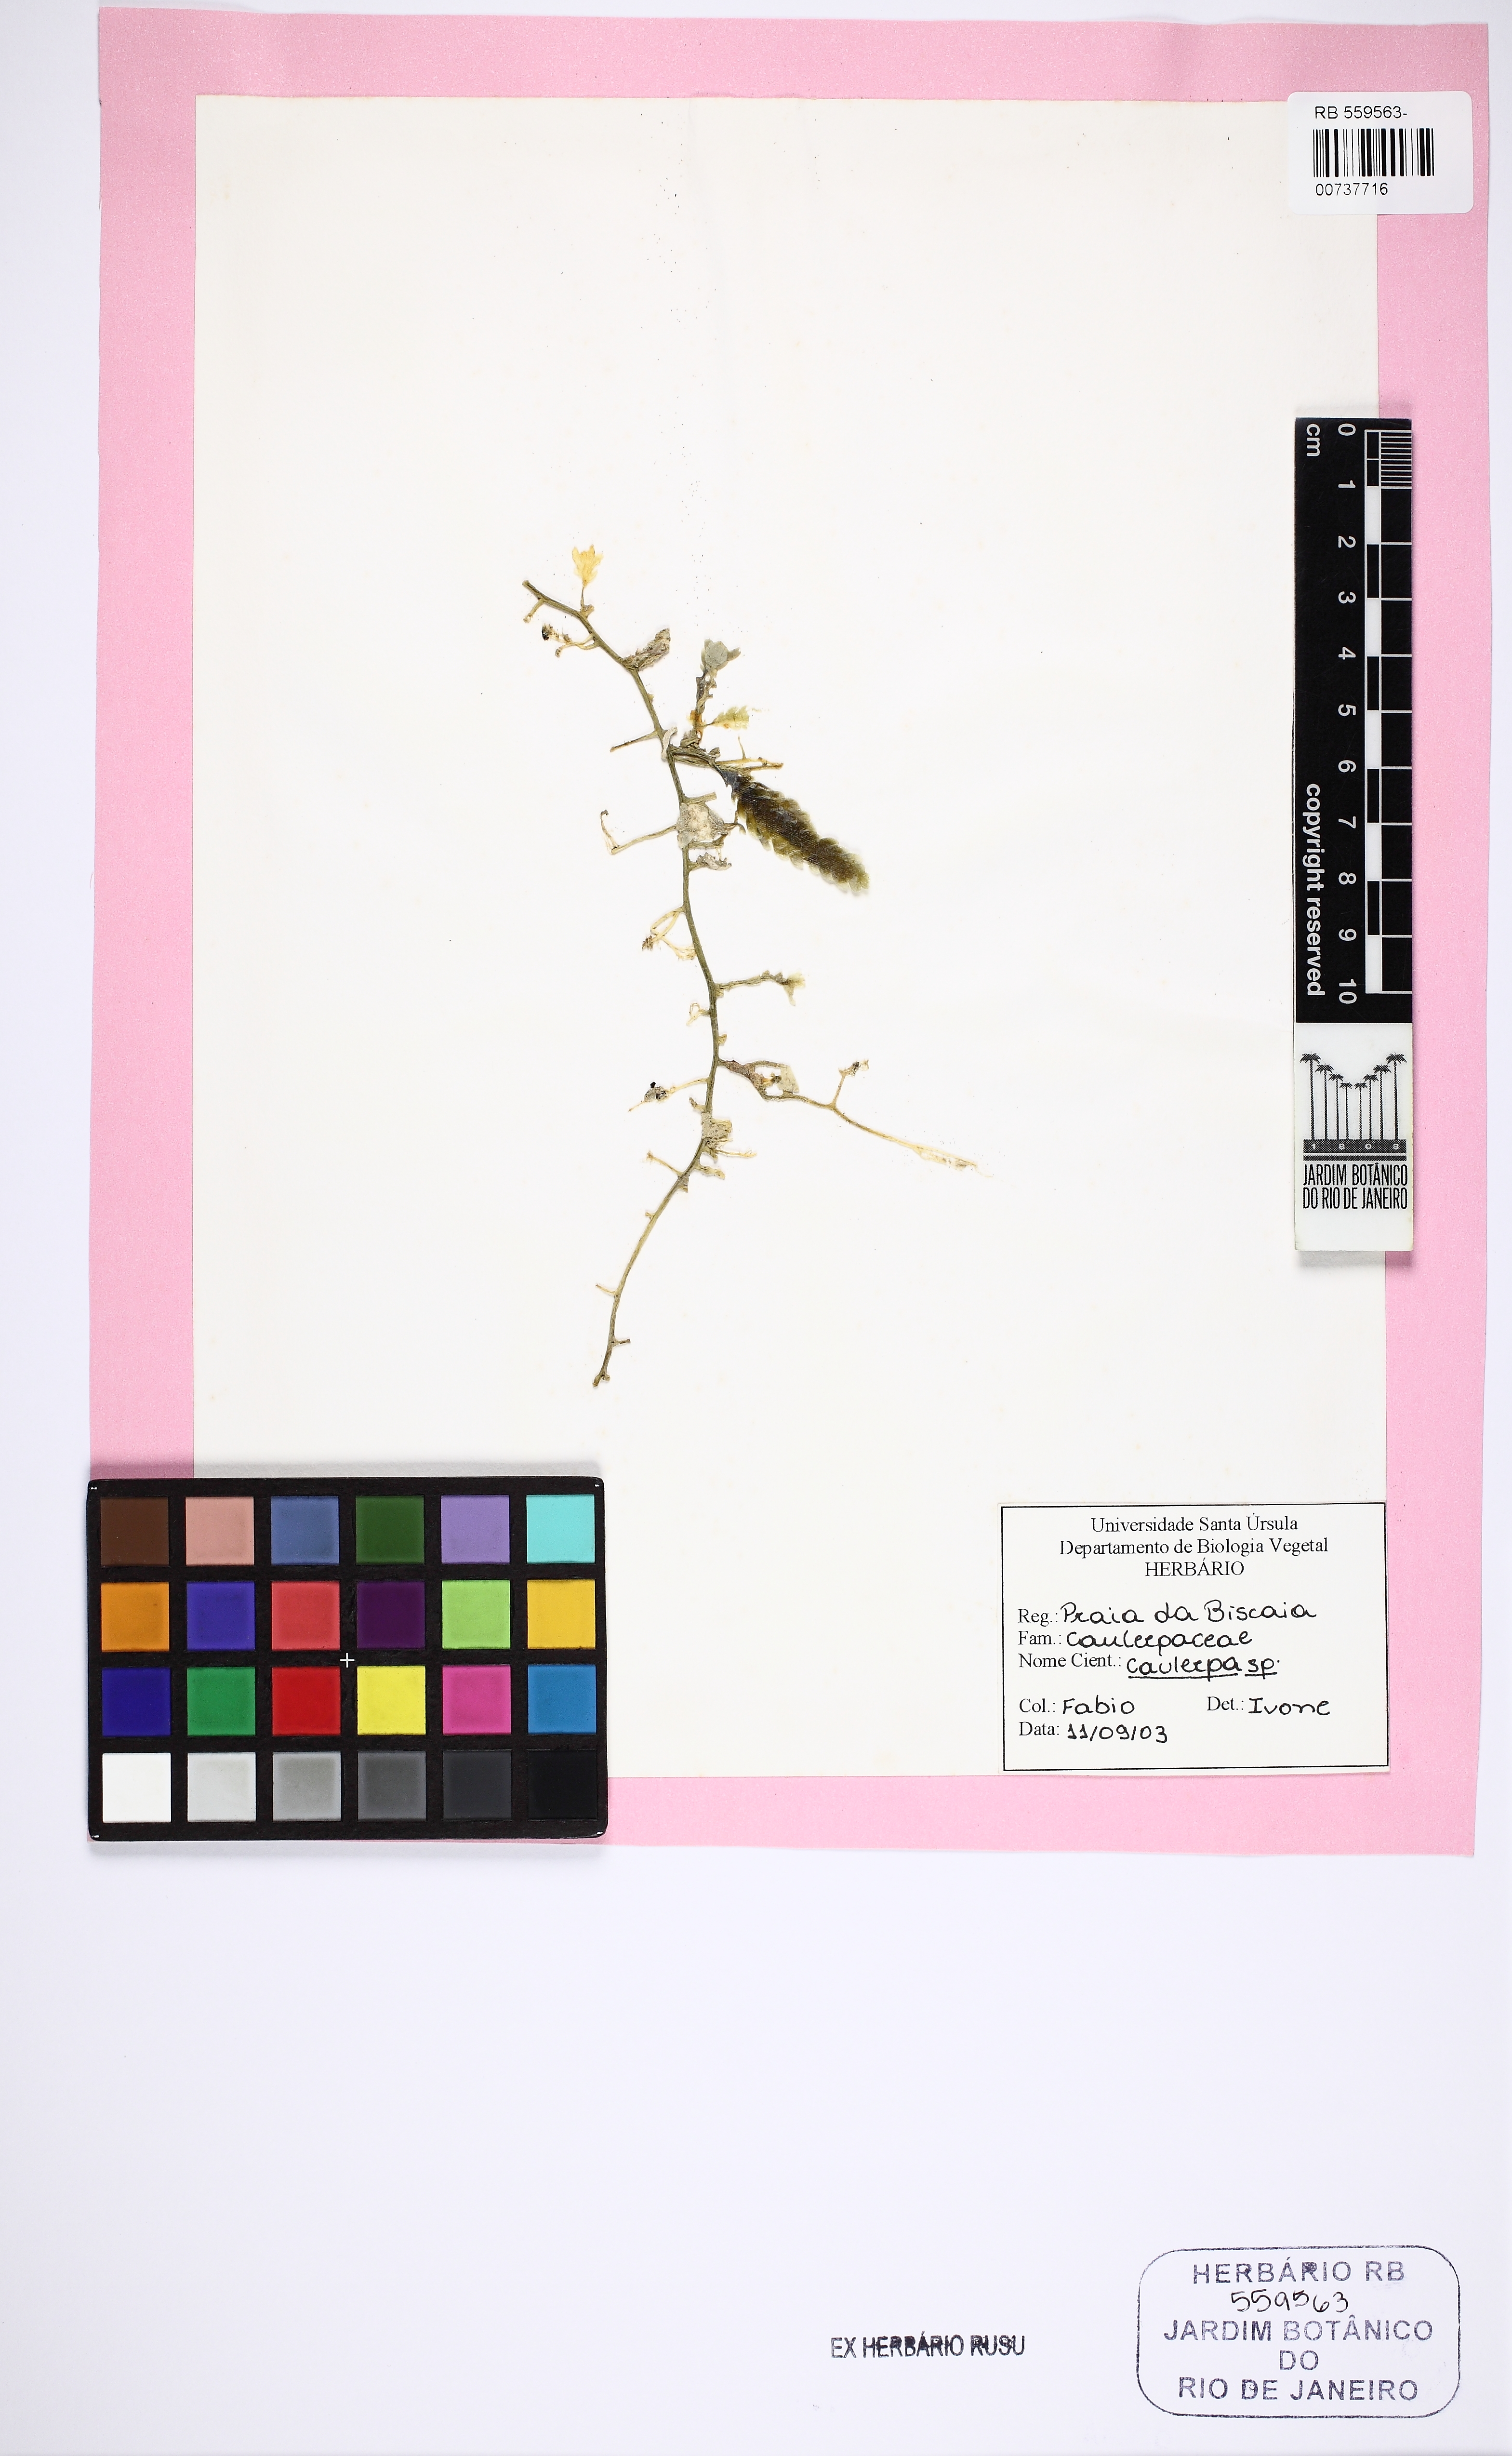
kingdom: Plantae
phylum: Chlorophyta
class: Ulvophyceae
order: Bryopsidales
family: Caulerpaceae
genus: Caulerpa
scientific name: Caulerpa
